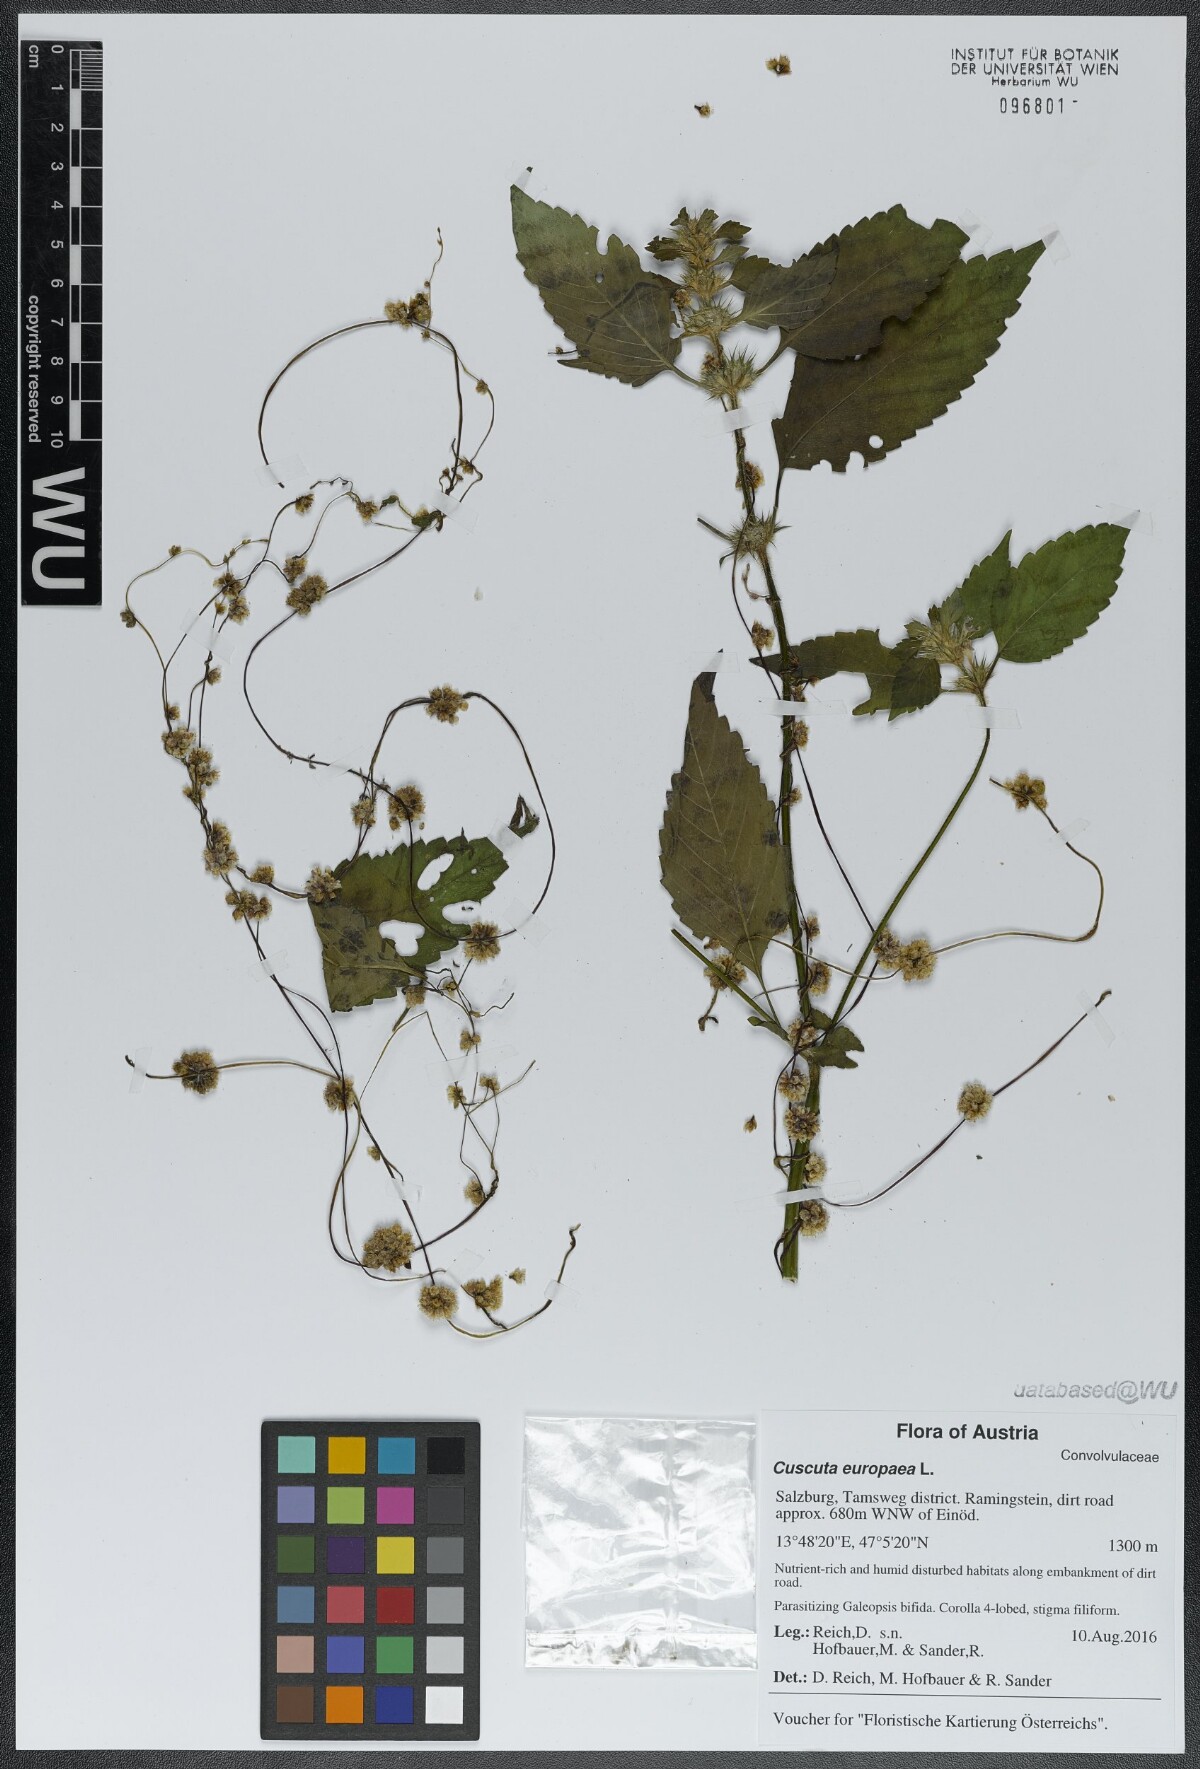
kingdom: Plantae
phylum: Tracheophyta
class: Magnoliopsida
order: Solanales
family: Convolvulaceae
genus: Cuscuta
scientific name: Cuscuta europaea
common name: Greater dodder
